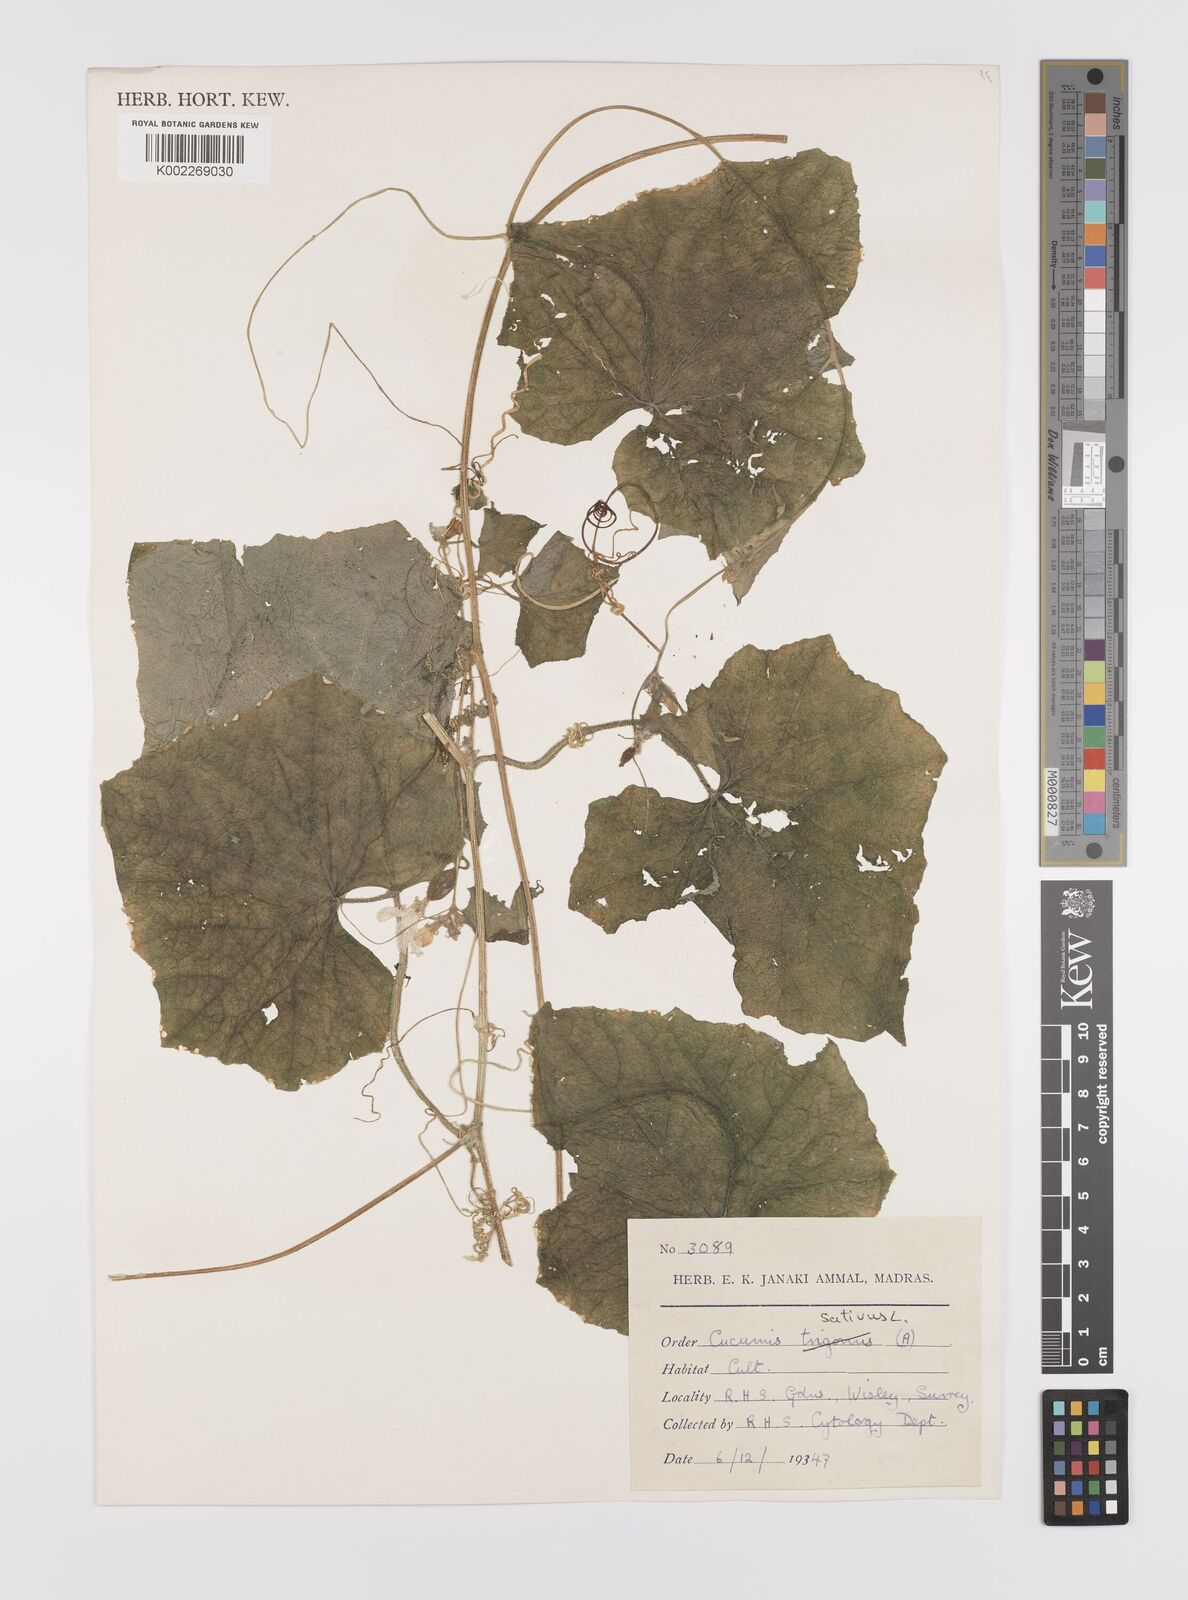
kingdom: Plantae
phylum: Tracheophyta
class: Magnoliopsida
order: Cucurbitales
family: Cucurbitaceae
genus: Cucumis
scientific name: Cucumis sativus
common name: Cucumber
